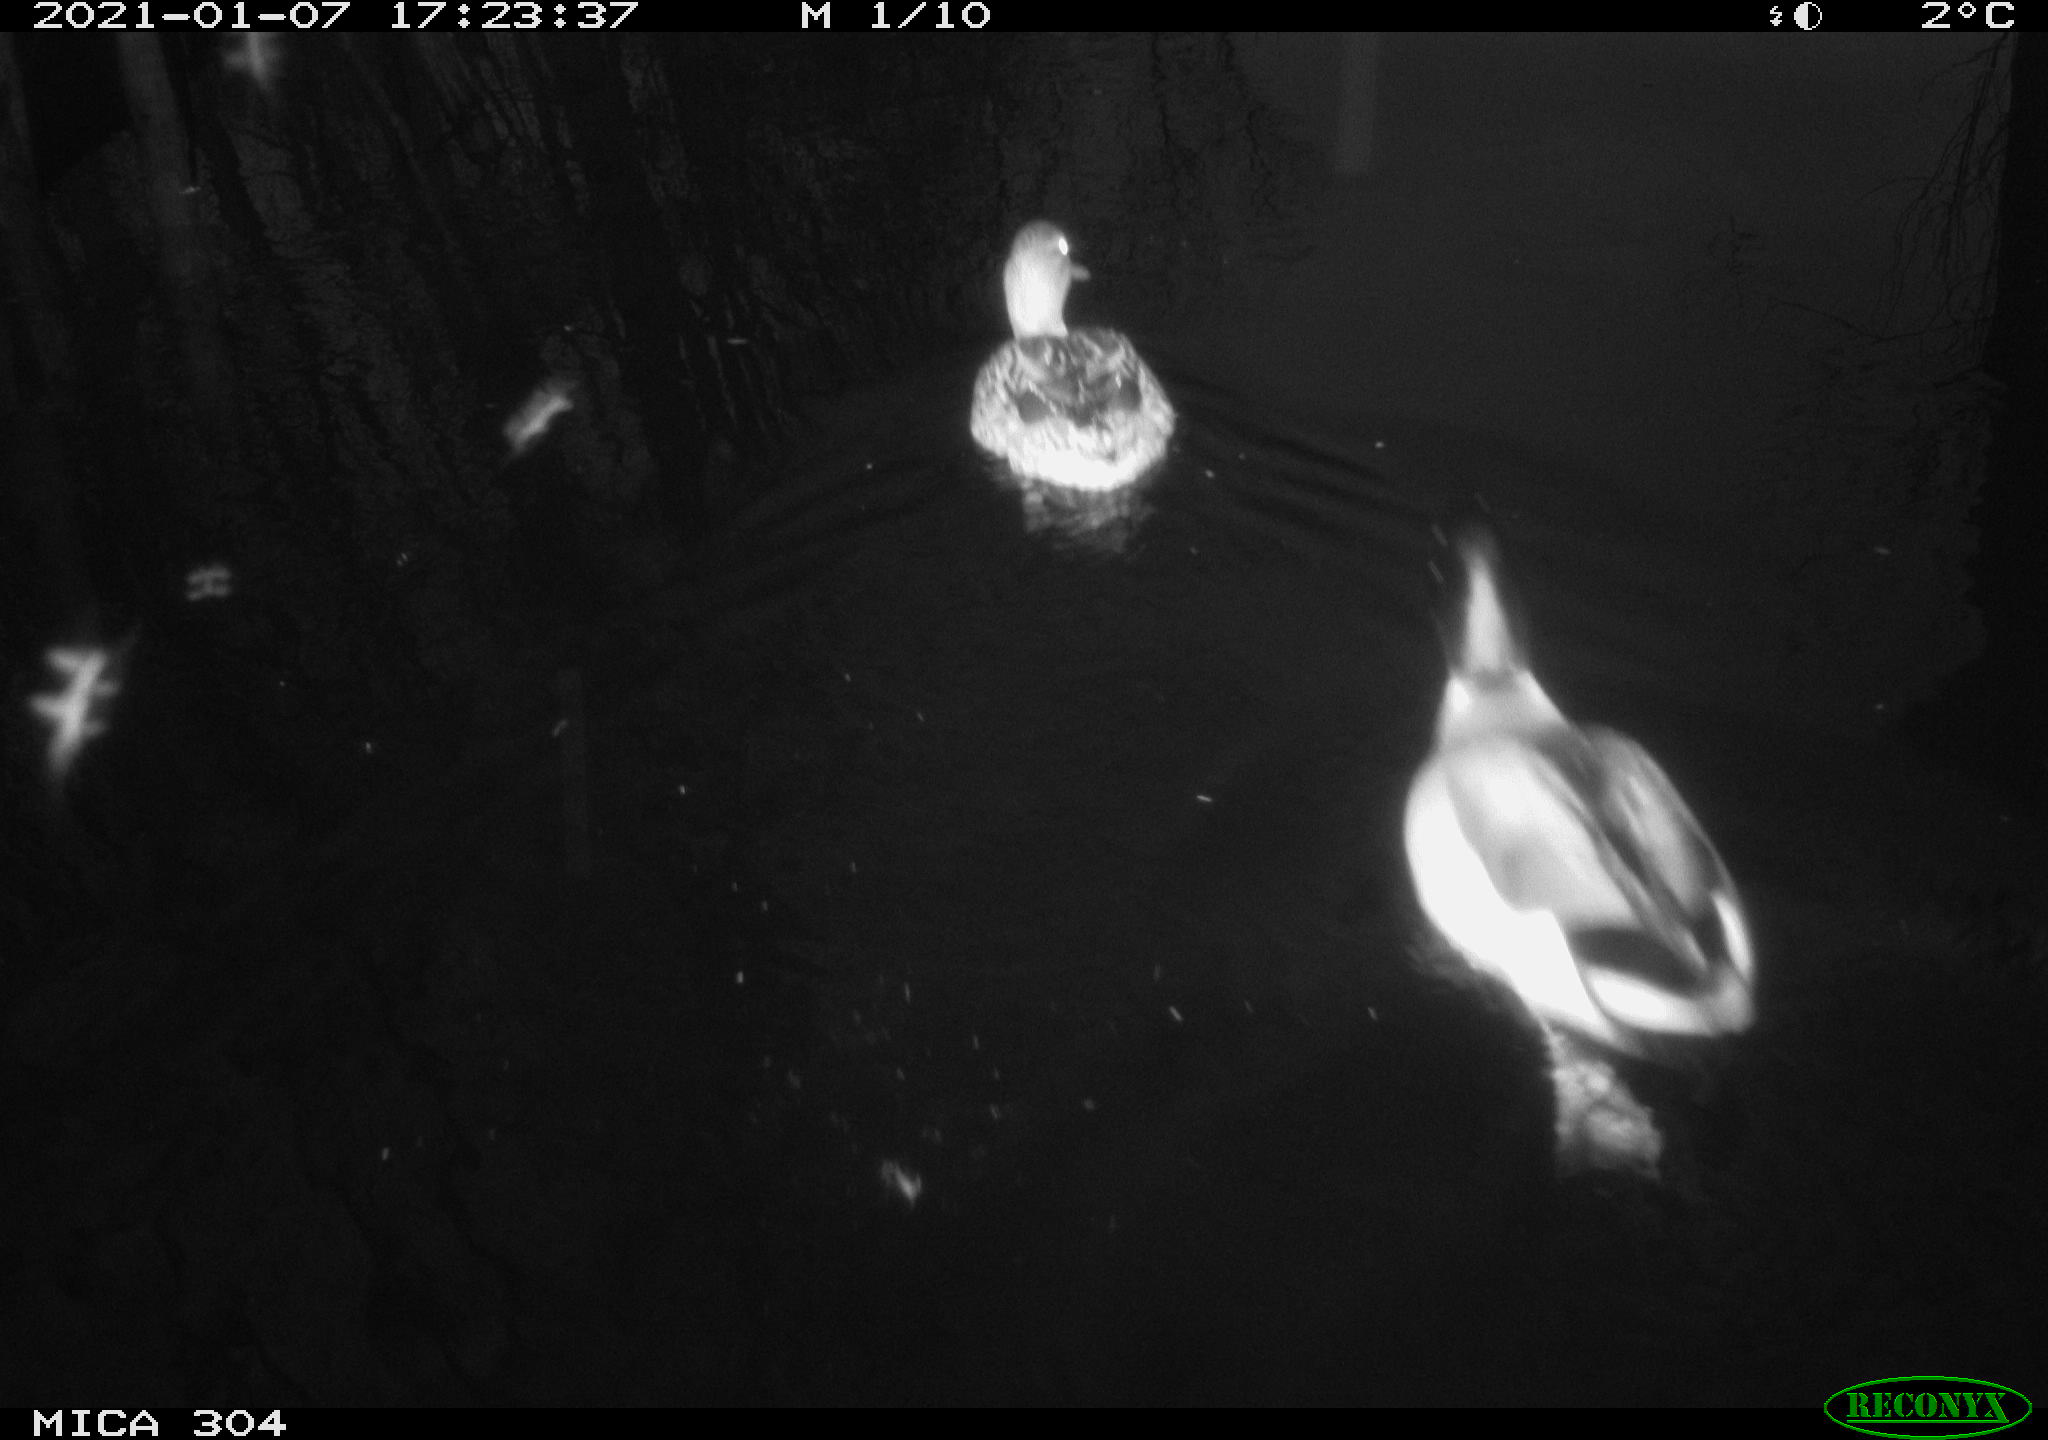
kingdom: Animalia
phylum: Chordata
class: Aves
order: Anseriformes
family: Anatidae
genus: Anas
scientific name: Anas platyrhynchos
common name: Mallard
